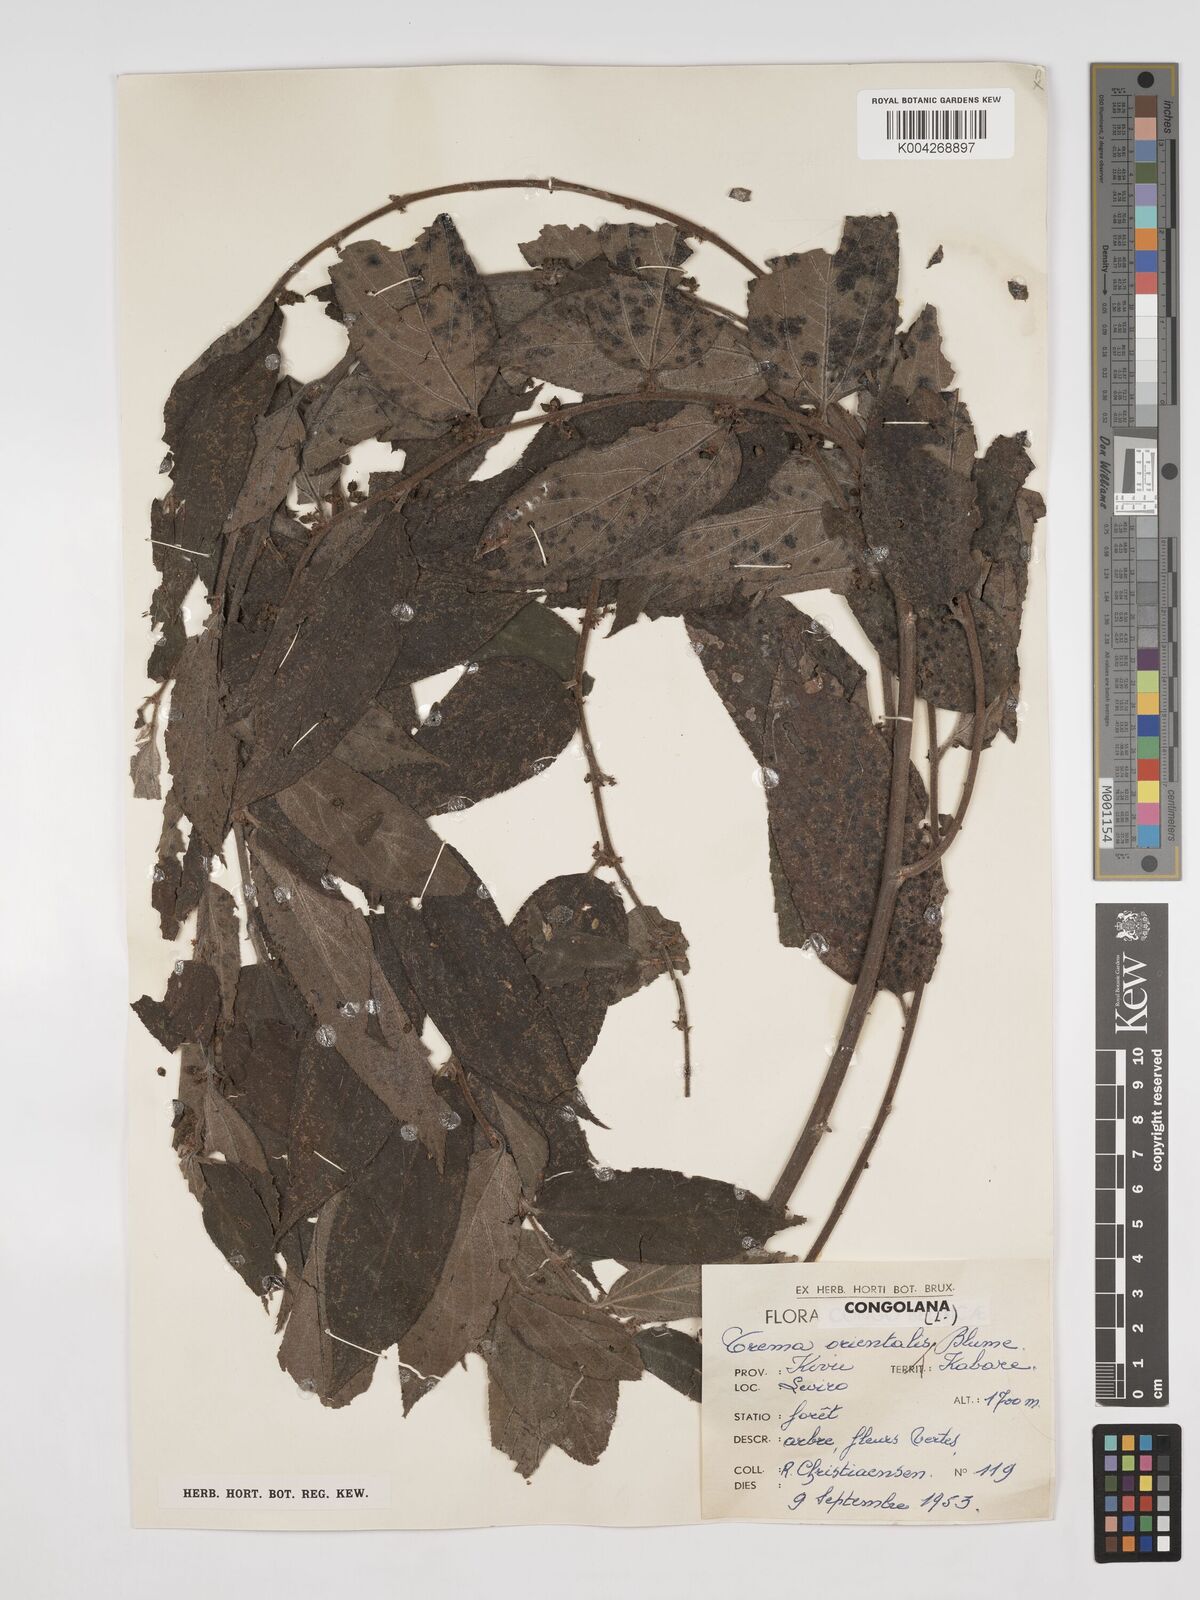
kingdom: Plantae
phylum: Tracheophyta
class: Magnoliopsida
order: Rosales
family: Cannabaceae
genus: Trema
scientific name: Trema orientale
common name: Indian charcoal tree
